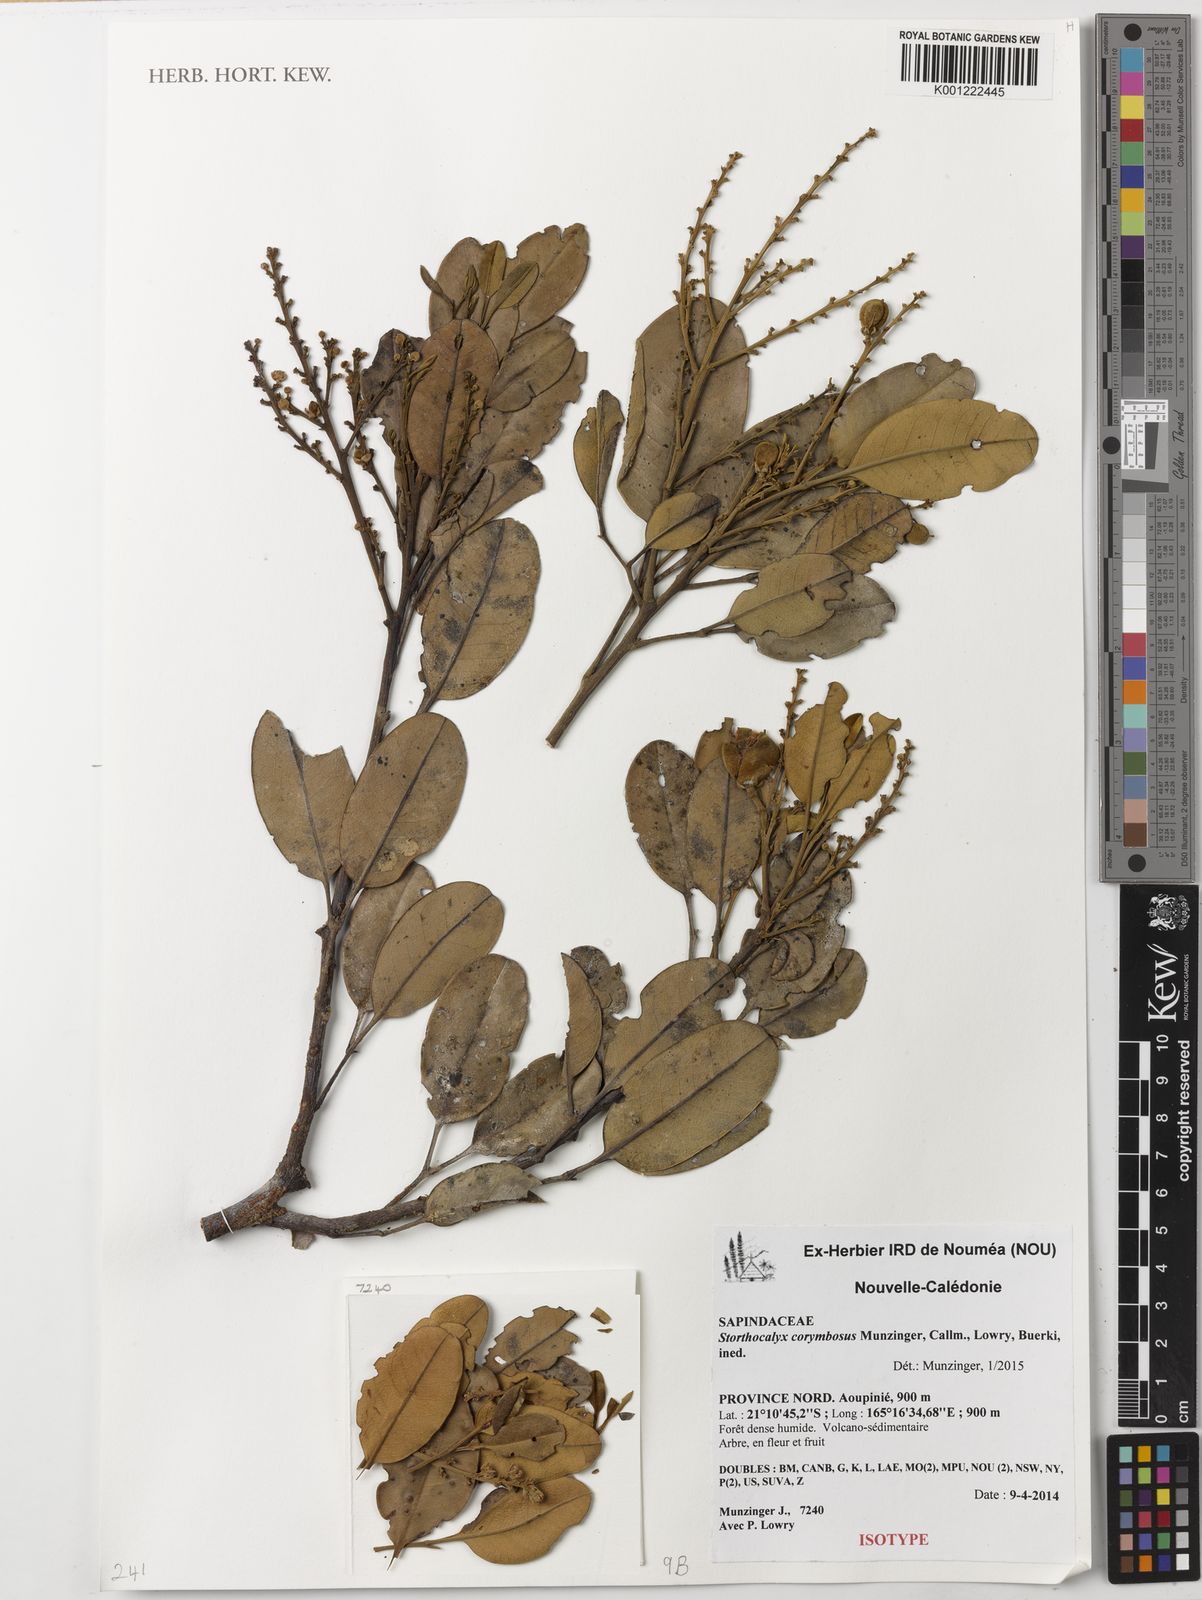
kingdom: Plantae
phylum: Tracheophyta
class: Magnoliopsida
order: Sapindales
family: Sapindaceae
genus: Storthocalyx
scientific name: Storthocalyx corymbosus
